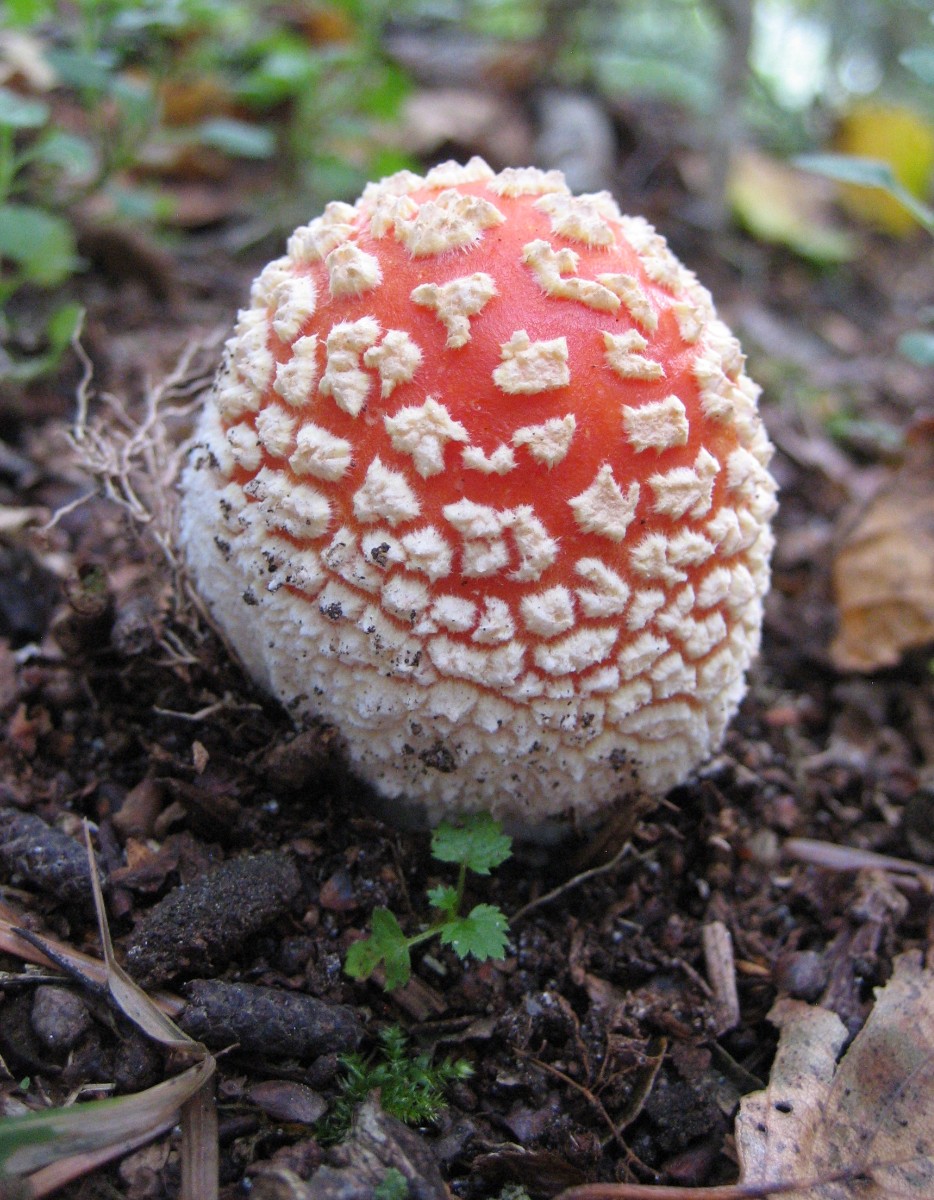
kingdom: Fungi
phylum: Basidiomycota
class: Agaricomycetes
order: Agaricales
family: Amanitaceae
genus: Amanita
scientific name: Amanita muscaria
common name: rød fluesvamp
